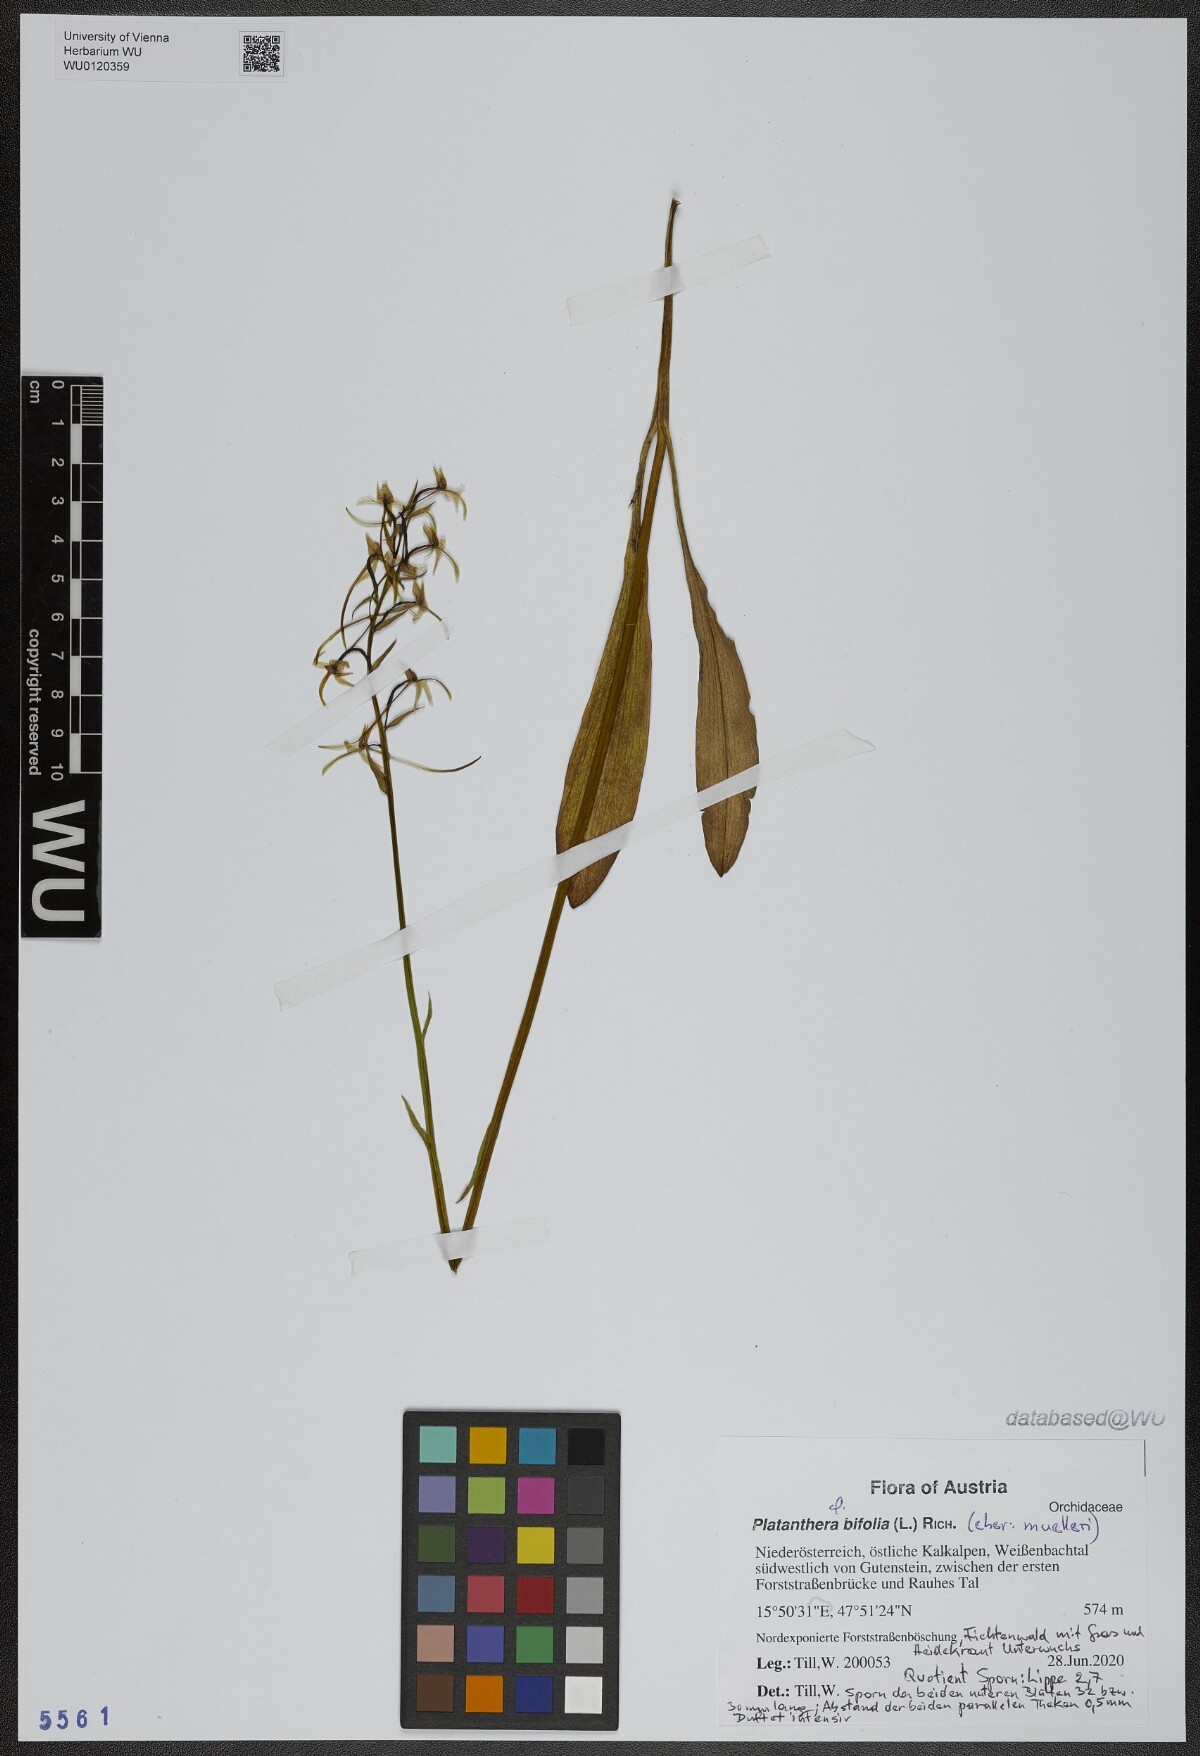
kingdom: Plantae
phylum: Tracheophyta
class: Liliopsida
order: Asparagales
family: Orchidaceae
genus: Platanthera
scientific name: Platanthera bifolia
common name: Lesser butterfly-orchid
